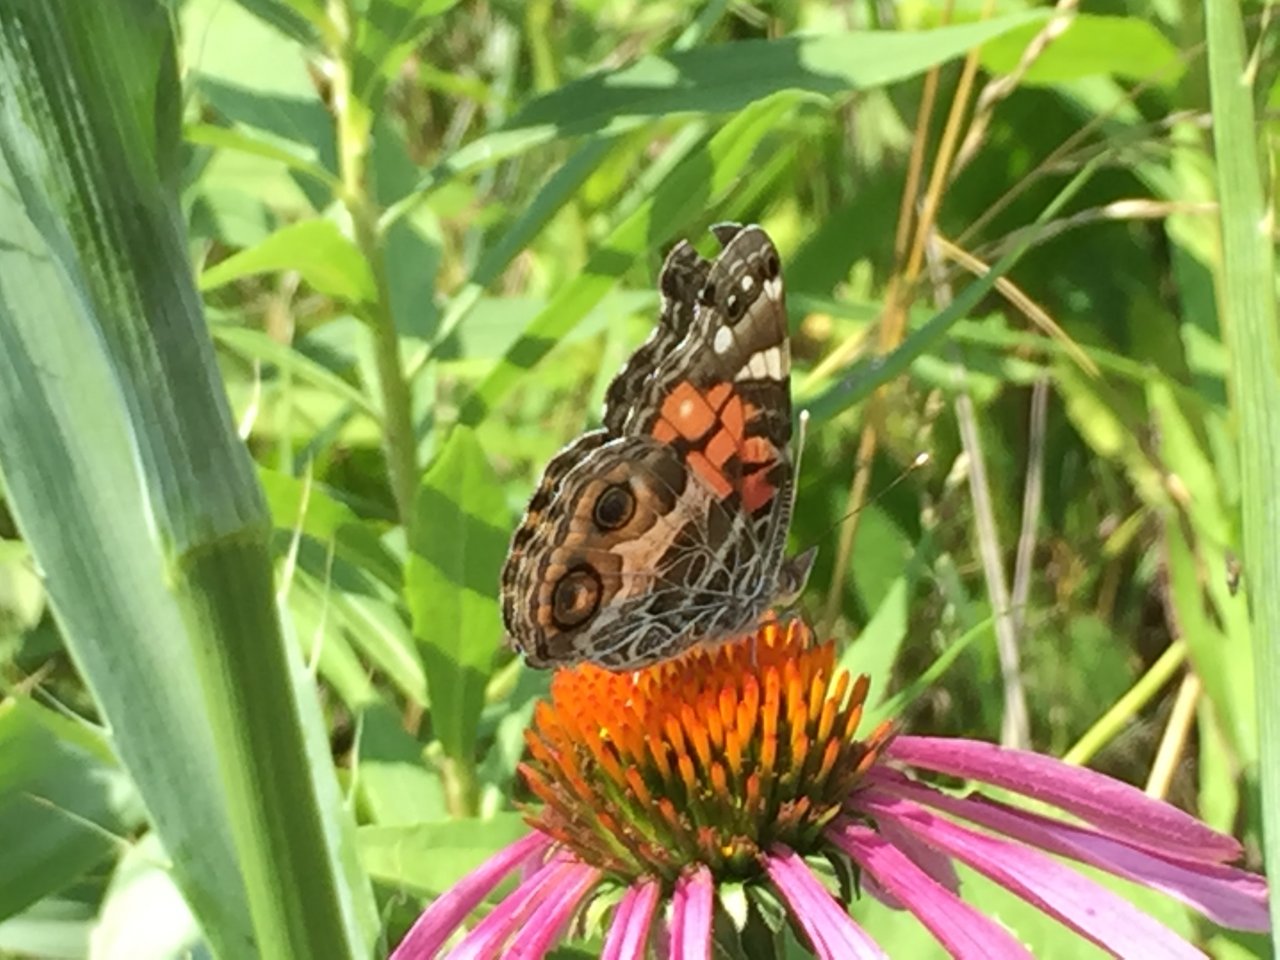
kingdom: Animalia
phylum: Arthropoda
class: Insecta
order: Lepidoptera
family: Nymphalidae
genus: Vanessa
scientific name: Vanessa virginiensis
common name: American Lady
